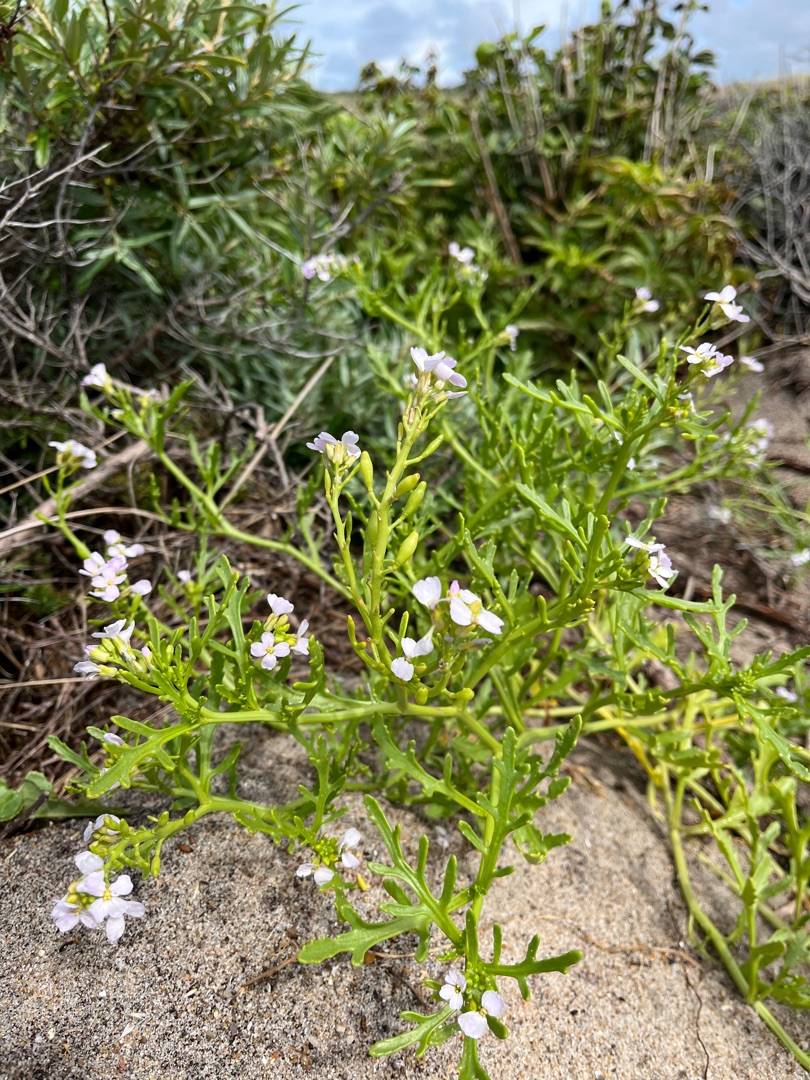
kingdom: Plantae
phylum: Tracheophyta
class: Magnoliopsida
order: Brassicales
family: Brassicaceae
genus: Cakile
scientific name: Cakile maritima
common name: Vesterhavs-strandsennep
